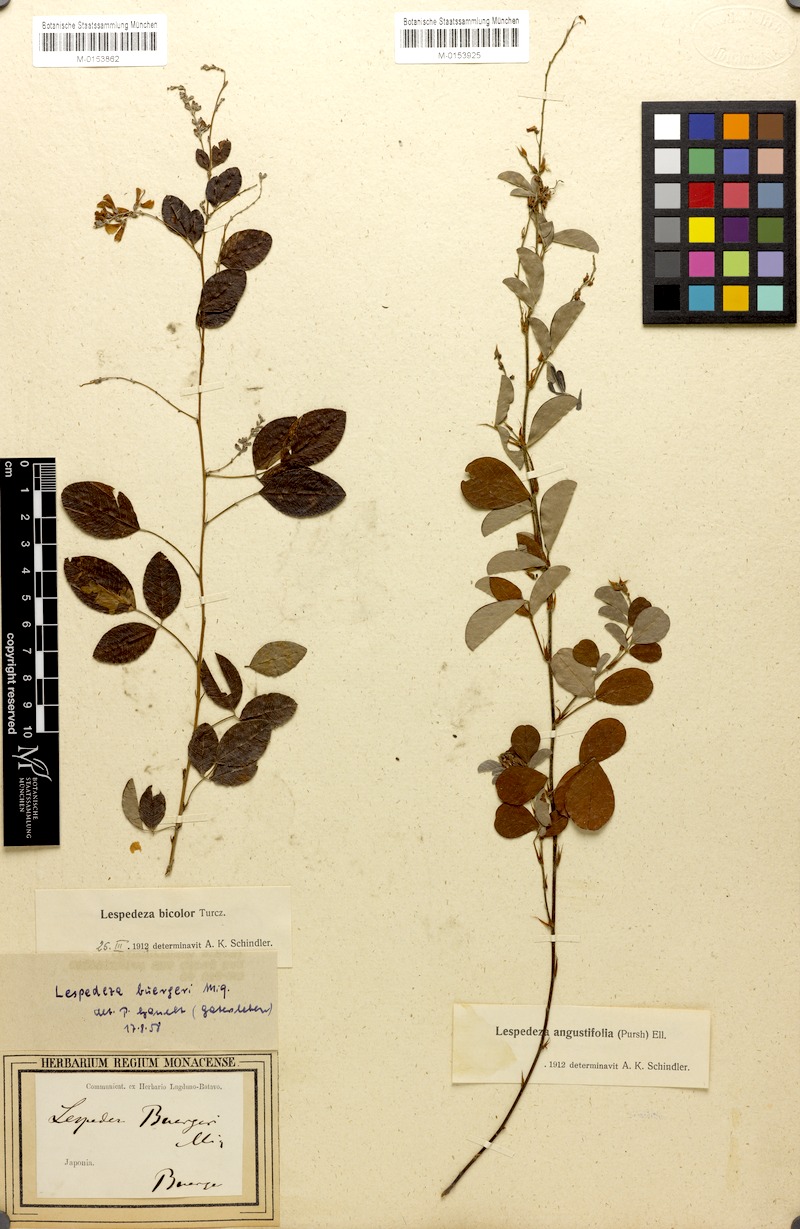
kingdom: Plantae
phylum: Tracheophyta
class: Magnoliopsida
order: Fabales
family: Fabaceae
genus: Lespedeza
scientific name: Lespedeza bicolor
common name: Shrub lespedeza
